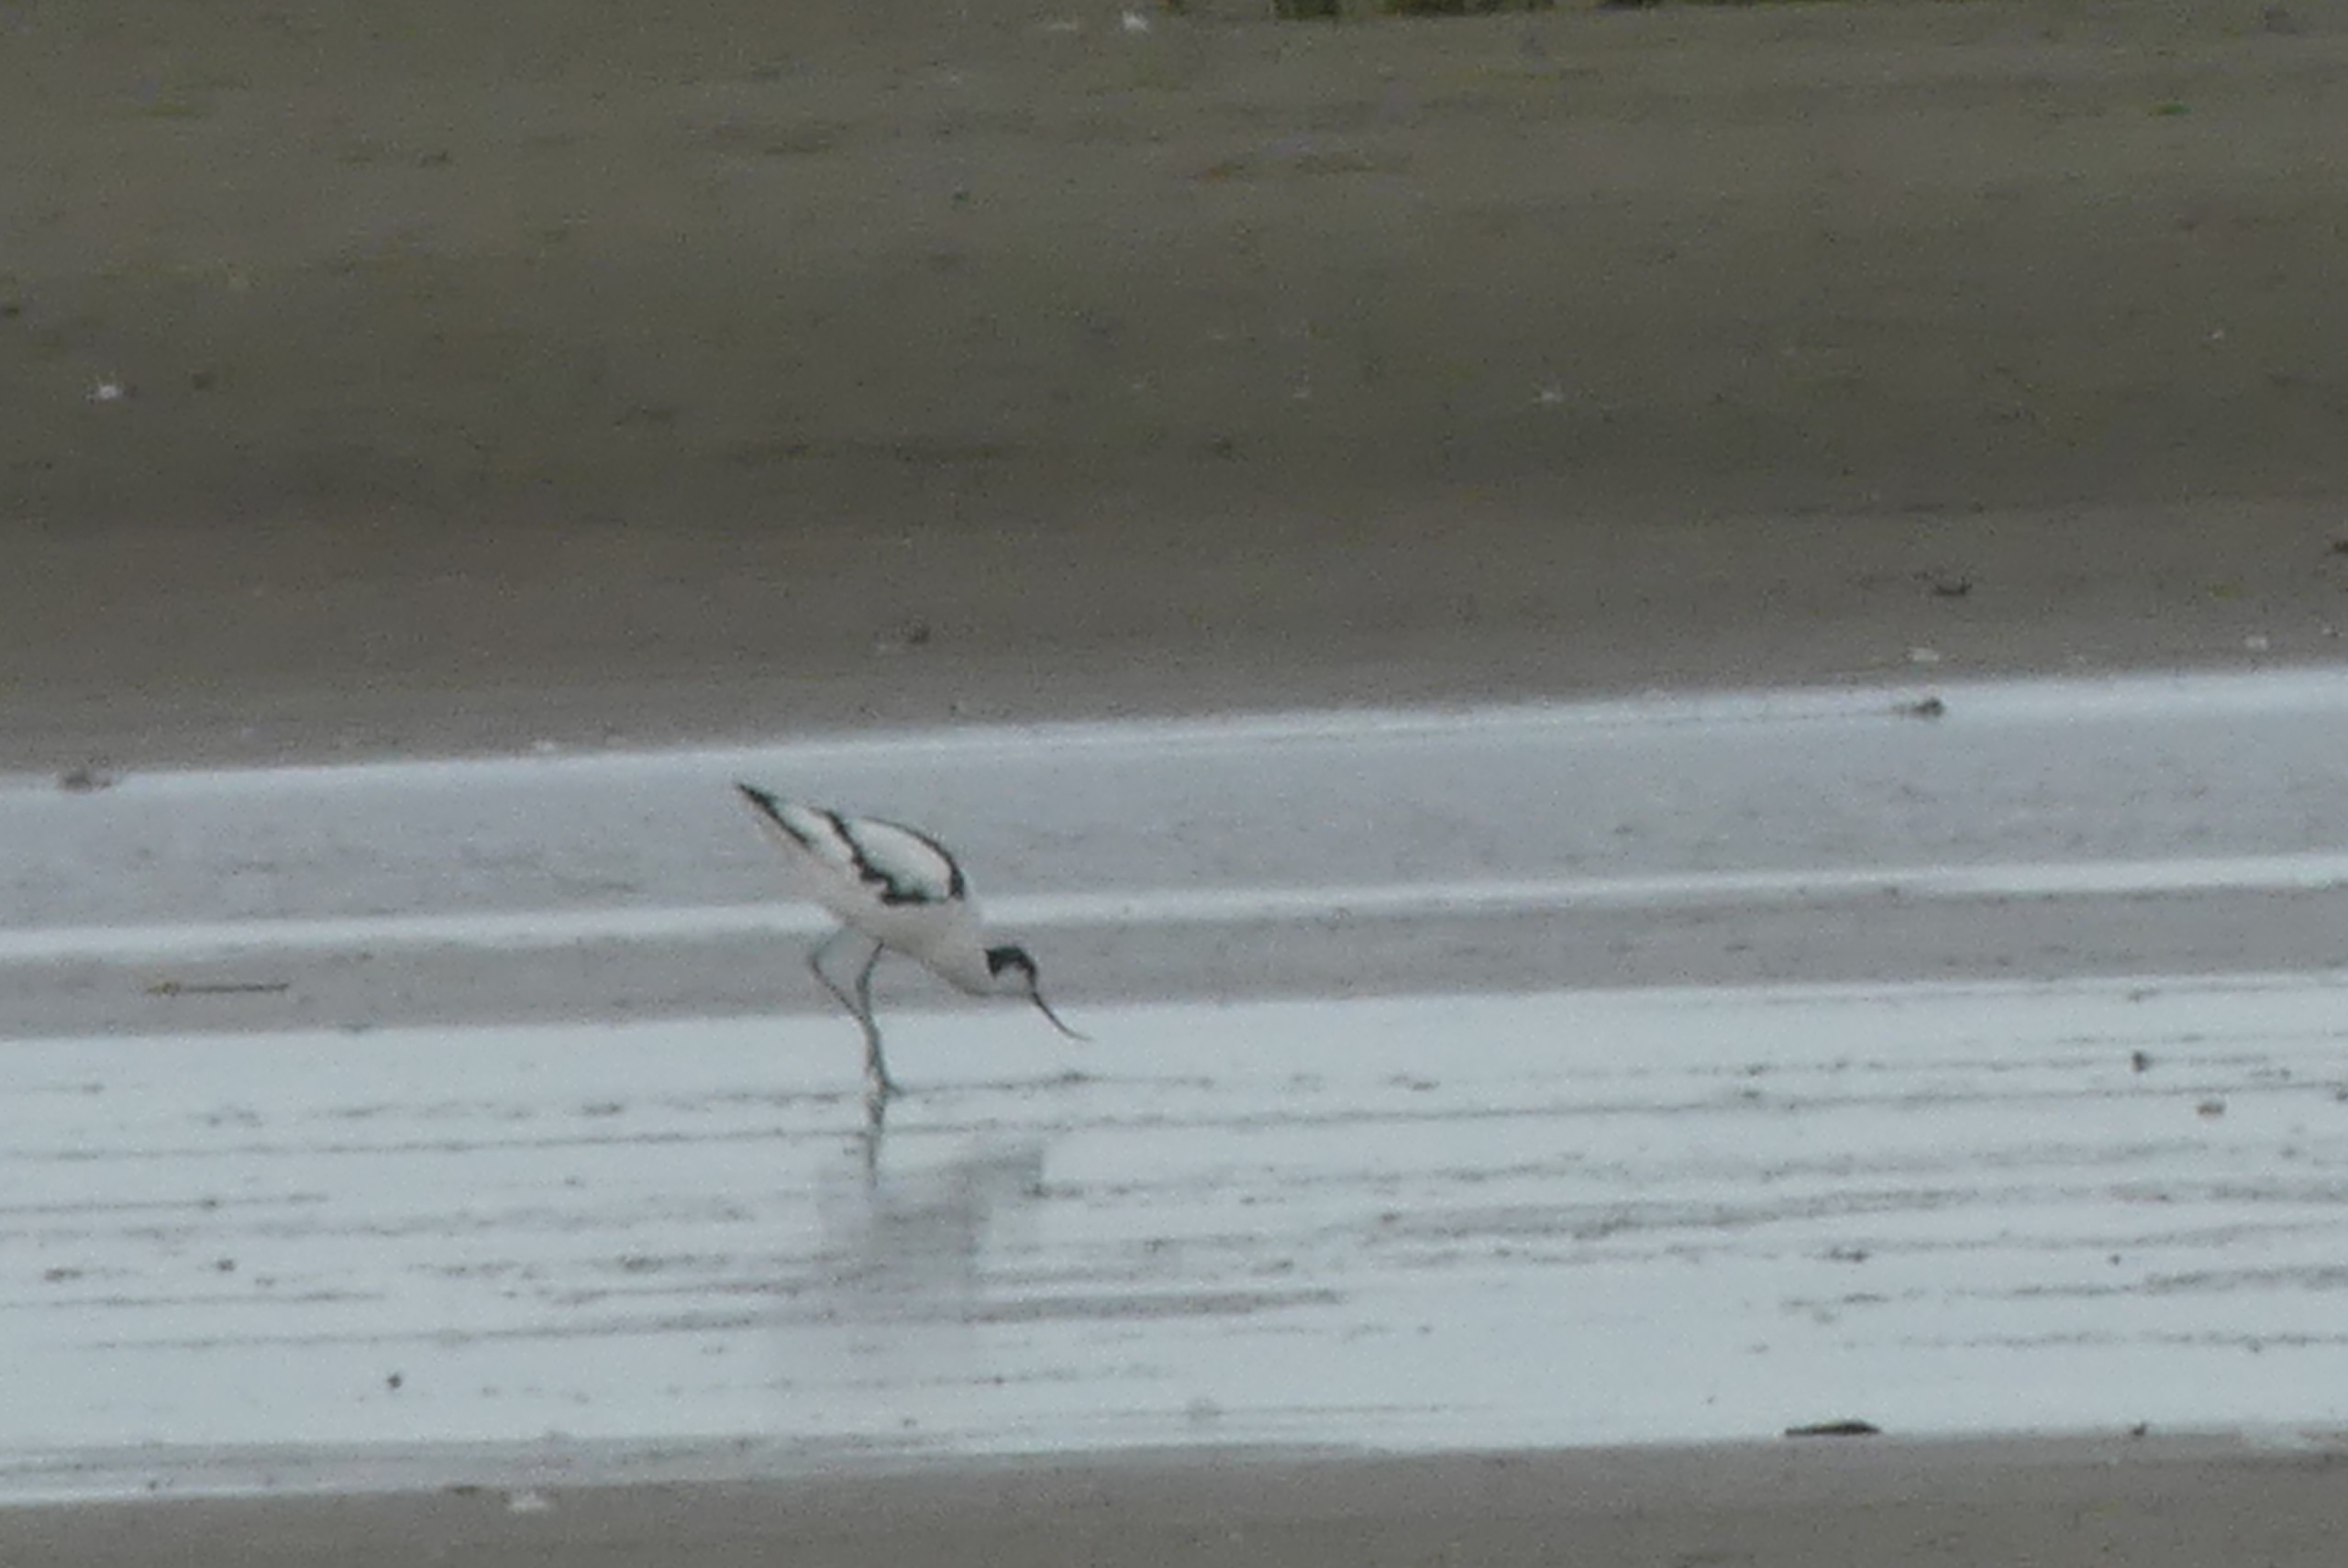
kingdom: Animalia
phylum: Chordata
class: Aves
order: Charadriiformes
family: Recurvirostridae
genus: Recurvirostra
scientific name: Recurvirostra avosetta
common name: Klyde
